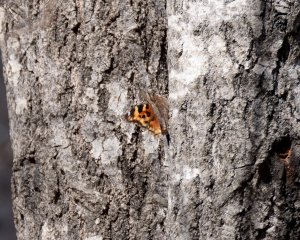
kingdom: Animalia
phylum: Arthropoda
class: Insecta
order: Lepidoptera
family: Nymphalidae
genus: Polygonia
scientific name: Polygonia vaualbum
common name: Compton Tortoiseshell
